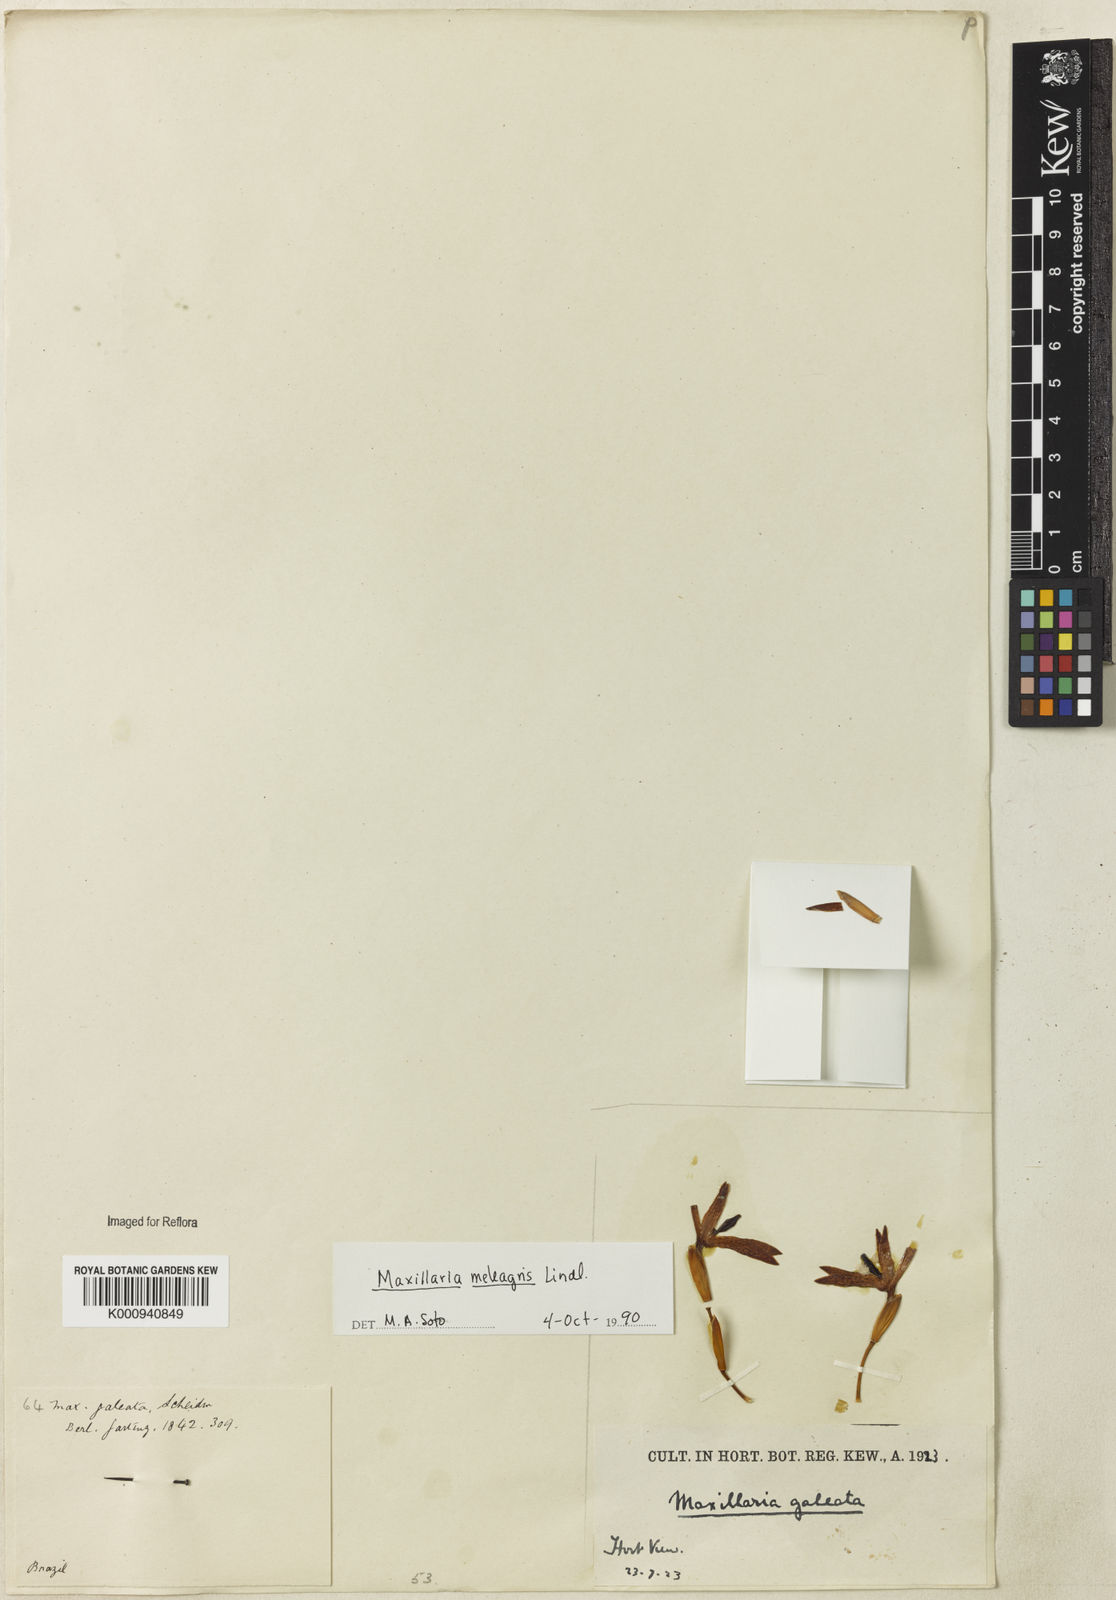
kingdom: Plantae
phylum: Tracheophyta
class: Liliopsida
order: Asparagales
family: Orchidaceae
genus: Maxillaria
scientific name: Maxillaria meleagris
